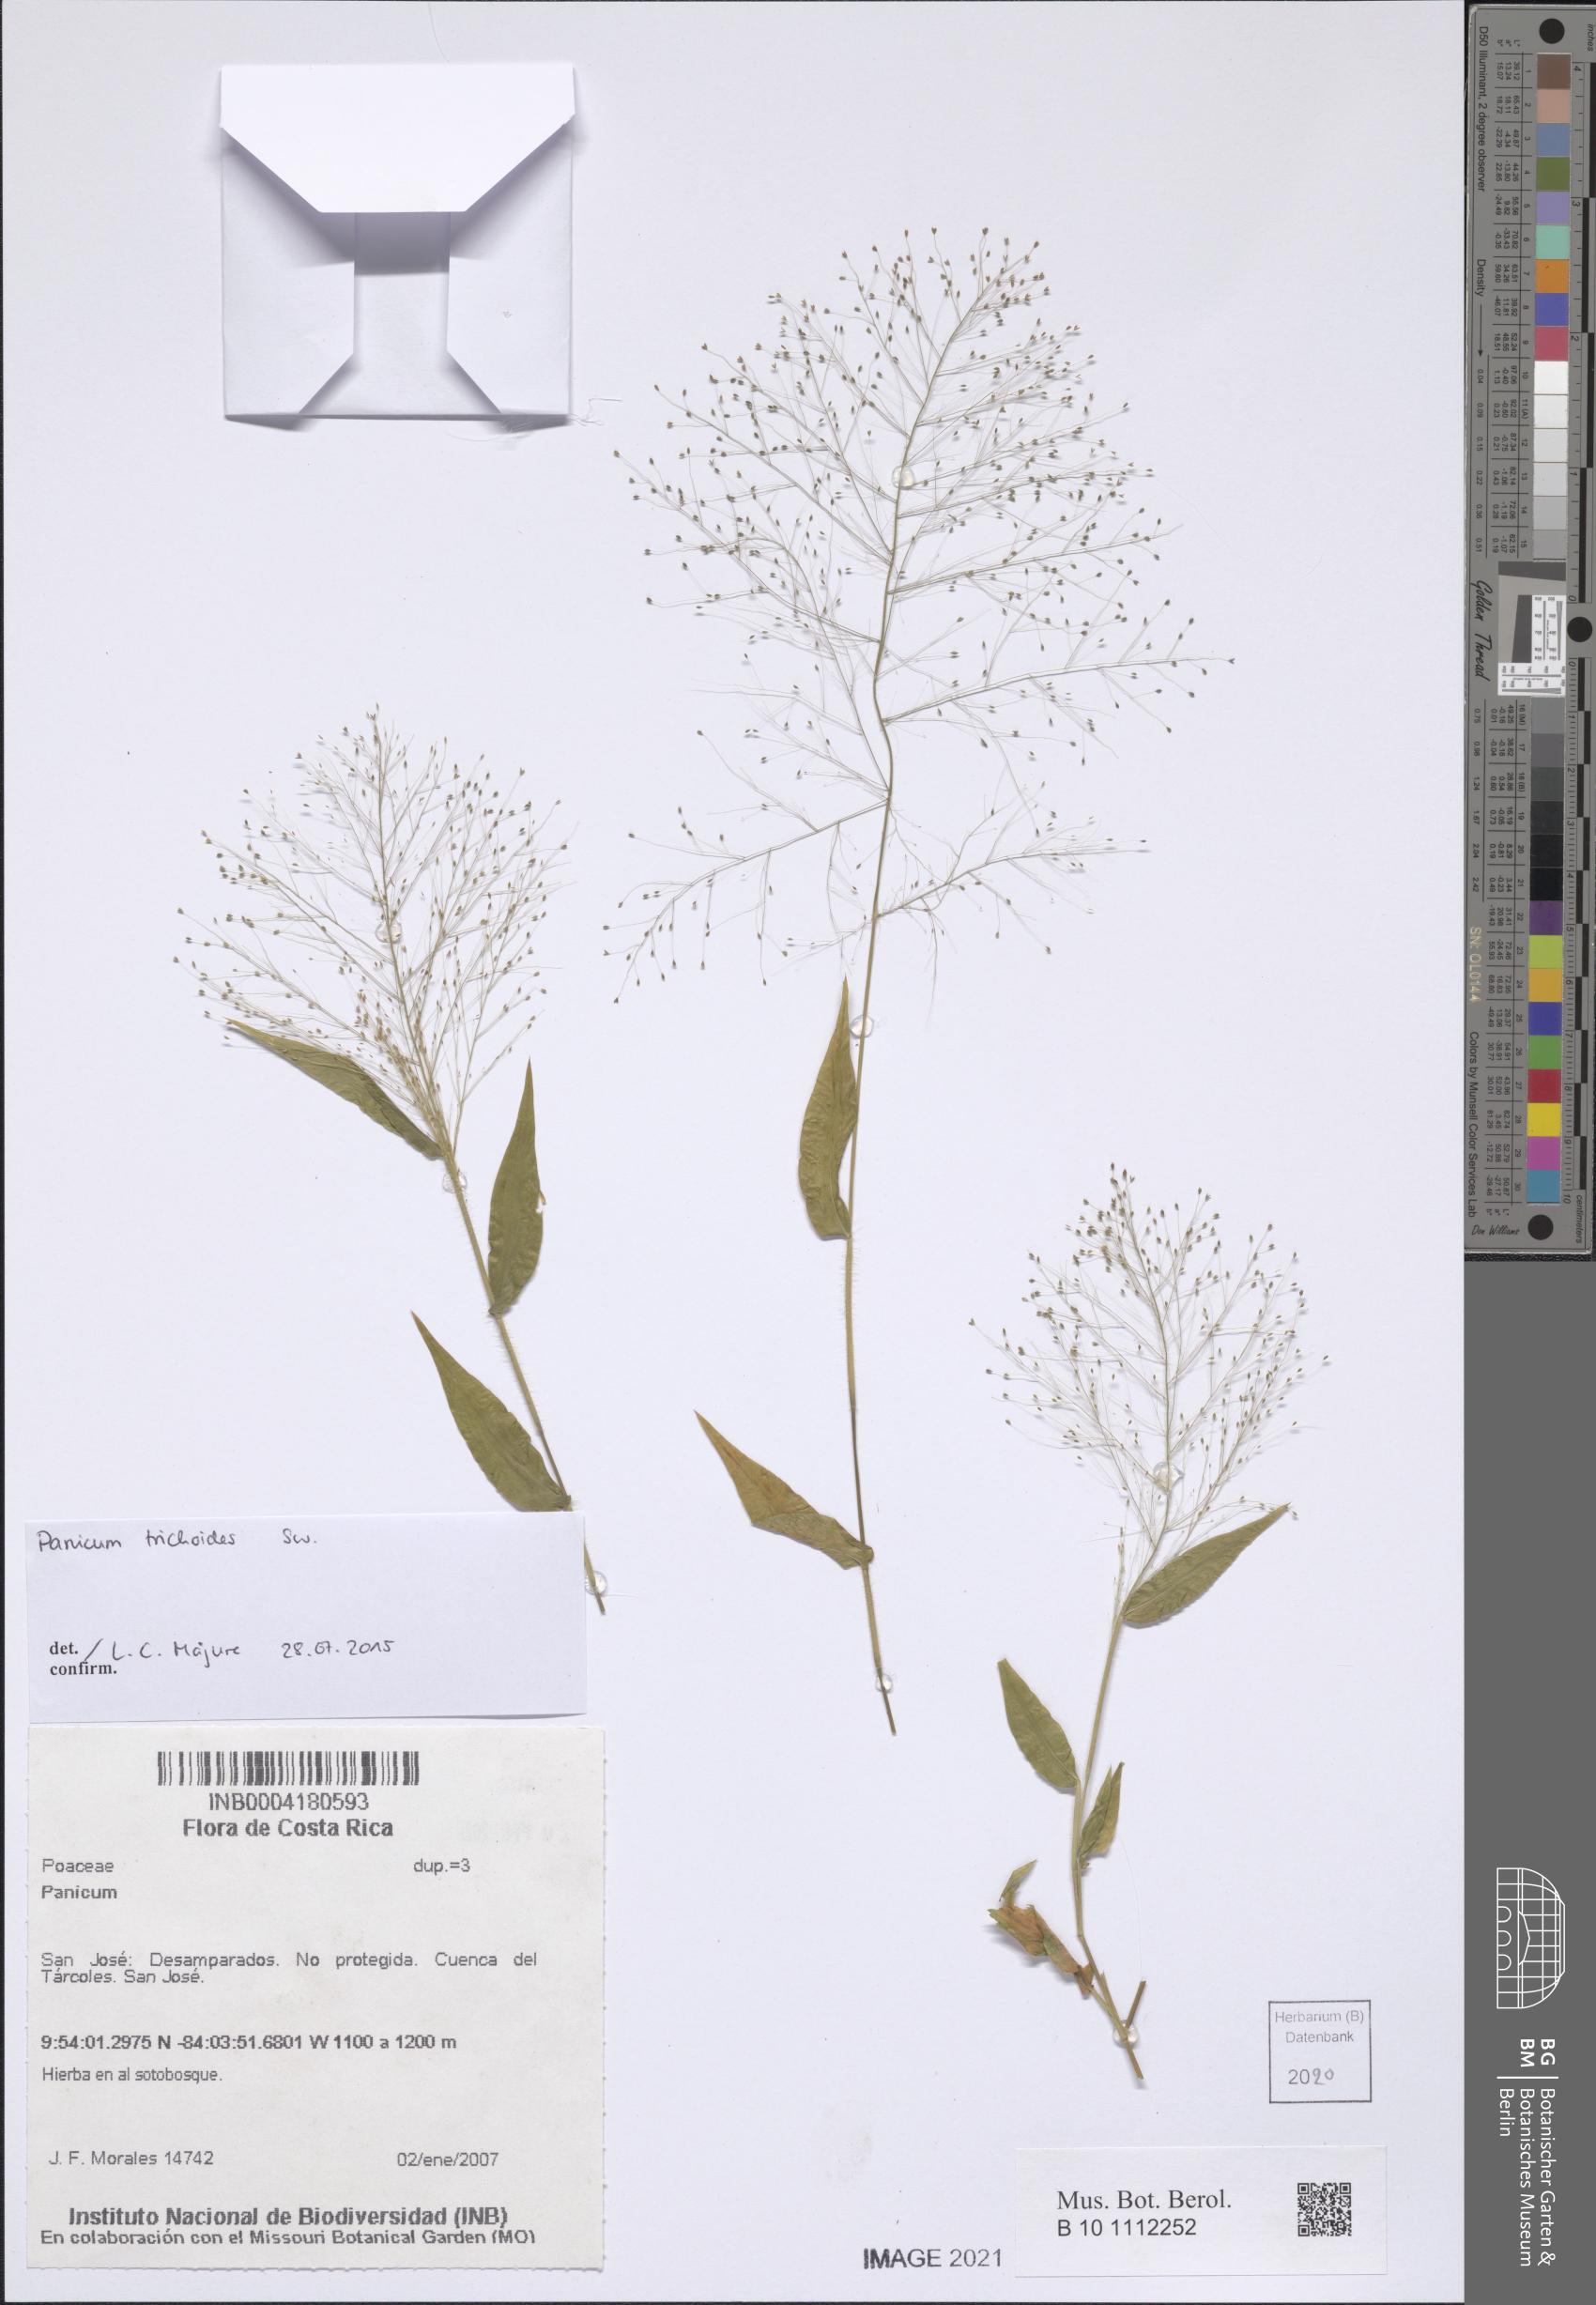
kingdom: Plantae
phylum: Tracheophyta
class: Liliopsida
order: Poales
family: Poaceae
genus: Panicum
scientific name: Panicum trichoides
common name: Tickle grass
